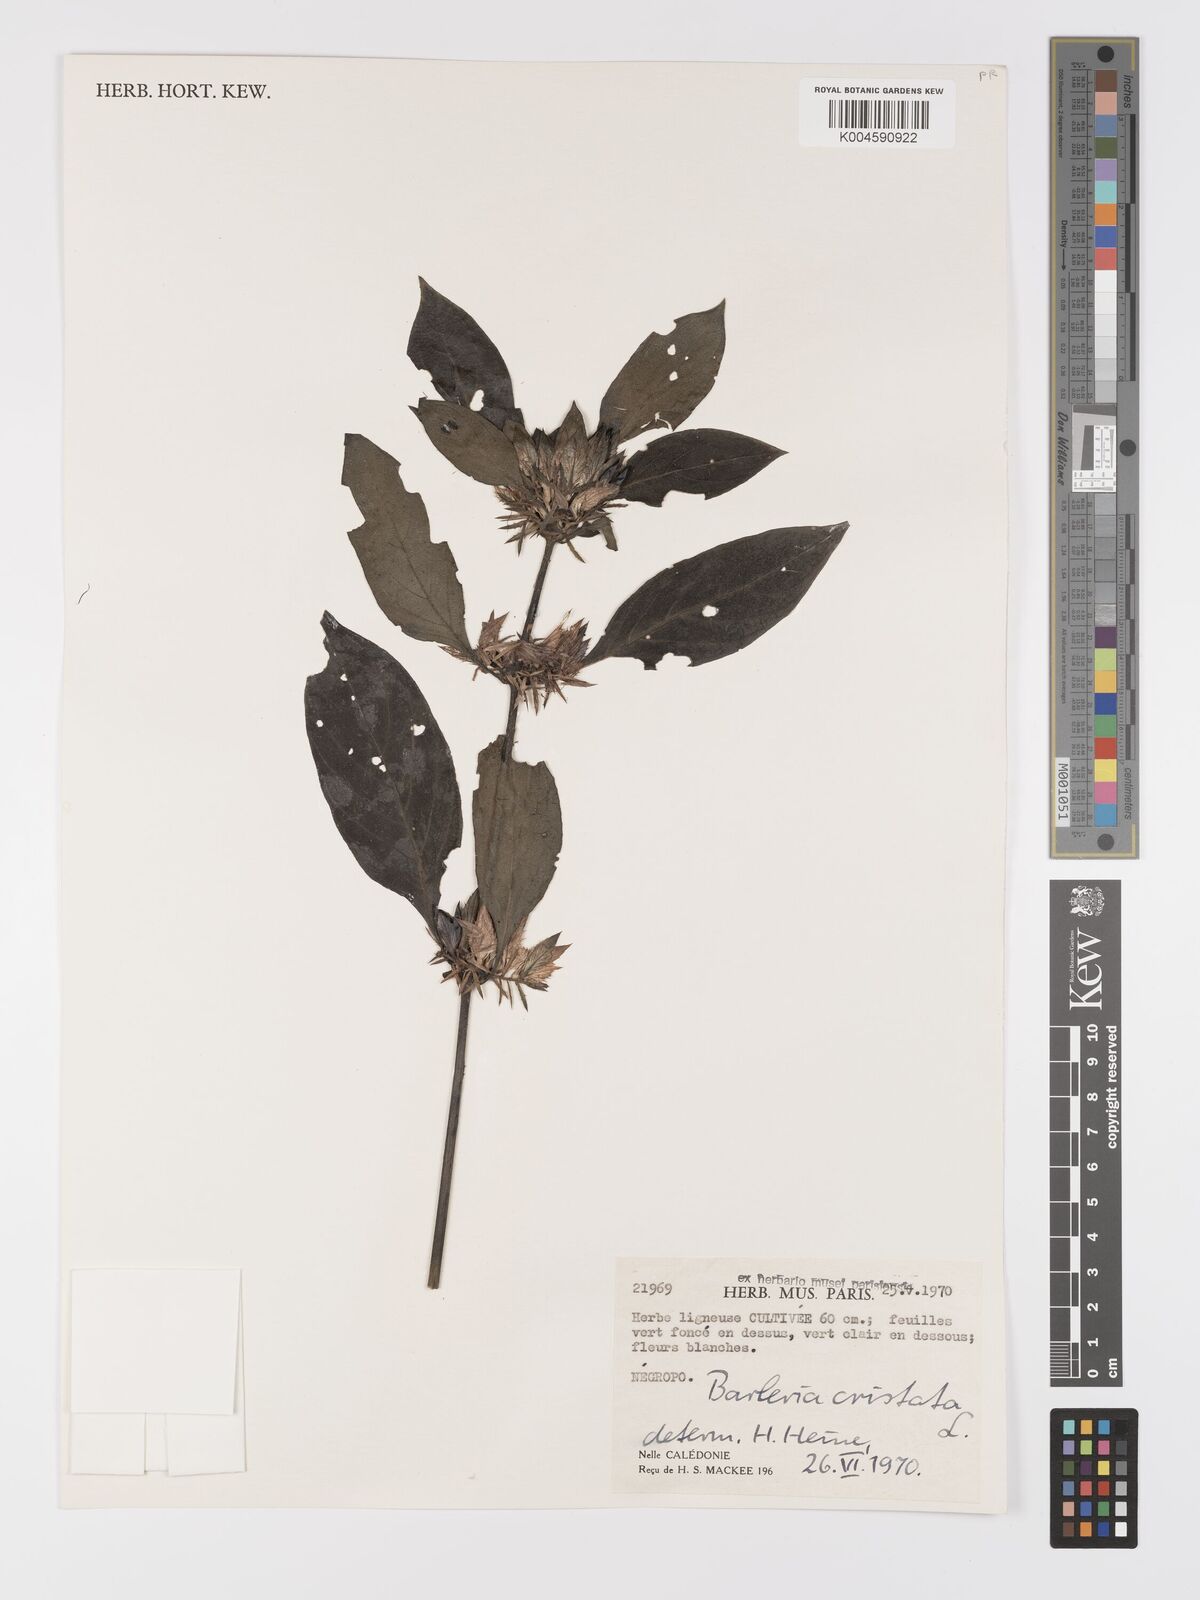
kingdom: Plantae
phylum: Tracheophyta
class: Magnoliopsida
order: Lamiales
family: Acanthaceae
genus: Barleria
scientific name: Barleria cristata
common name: Crested philippine violet
